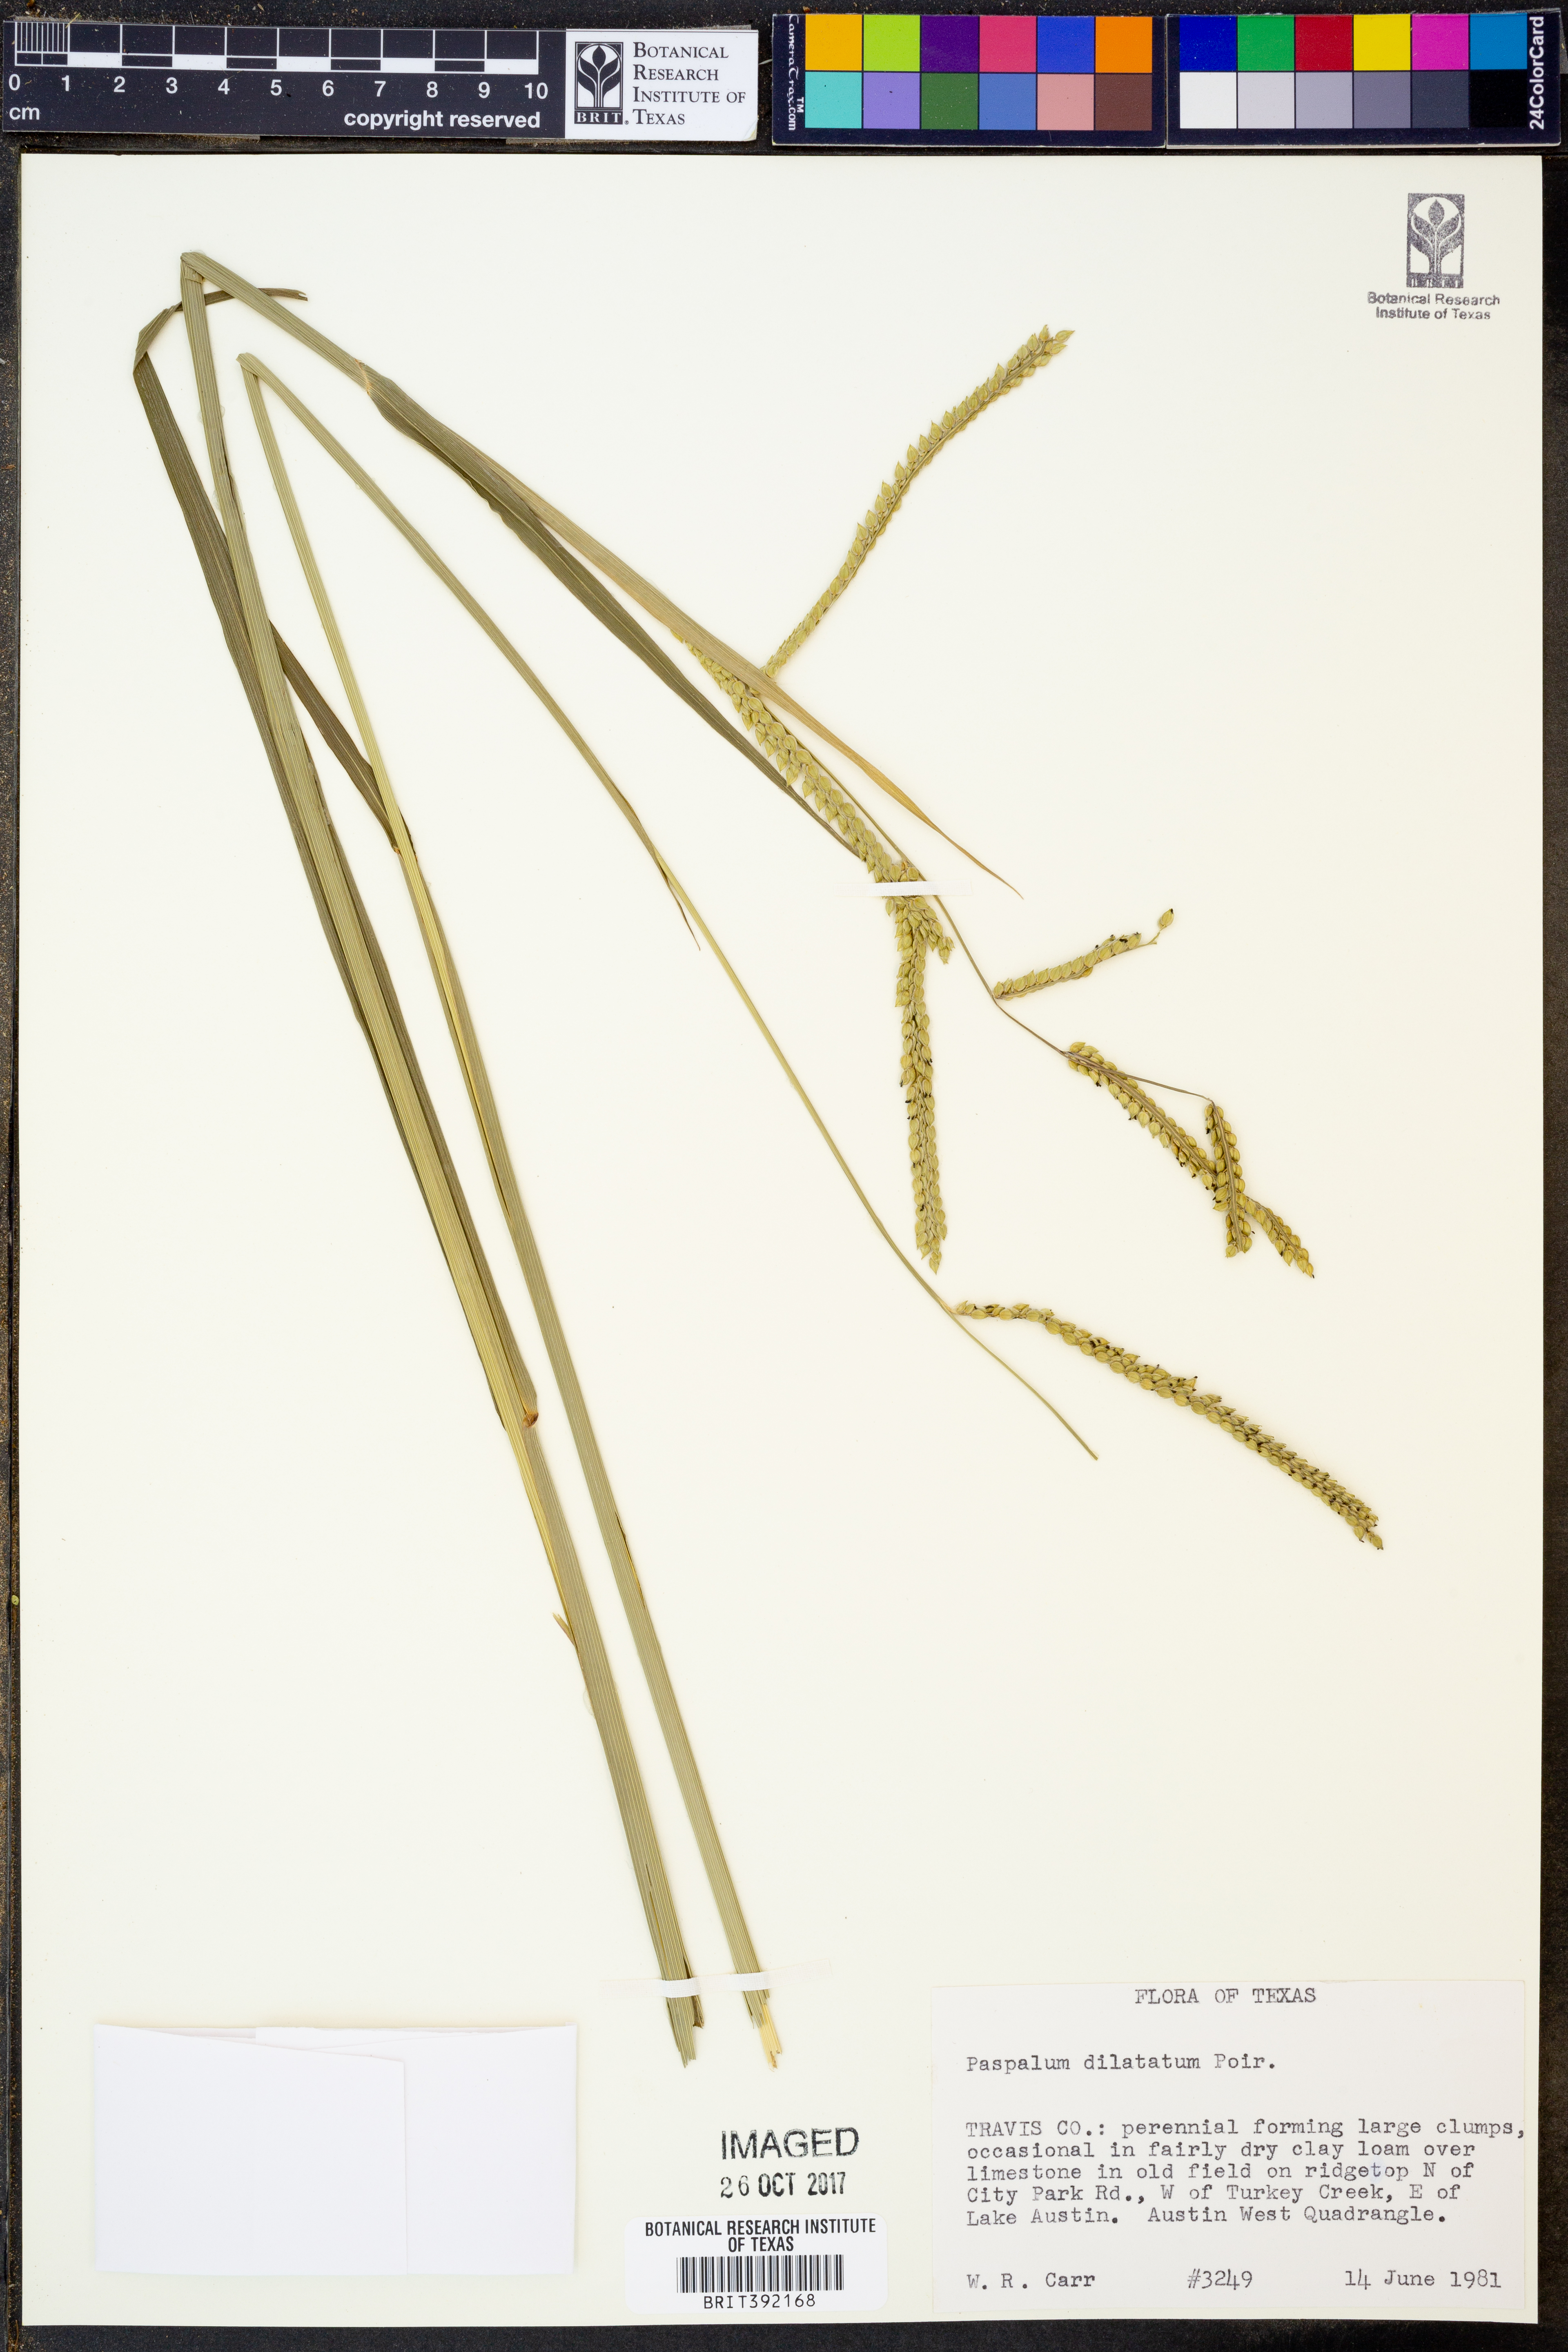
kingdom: Plantae
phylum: Tracheophyta
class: Liliopsida
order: Poales
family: Poaceae
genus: Paspalum
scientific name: Paspalum dilatatum
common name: Dallisgrass
